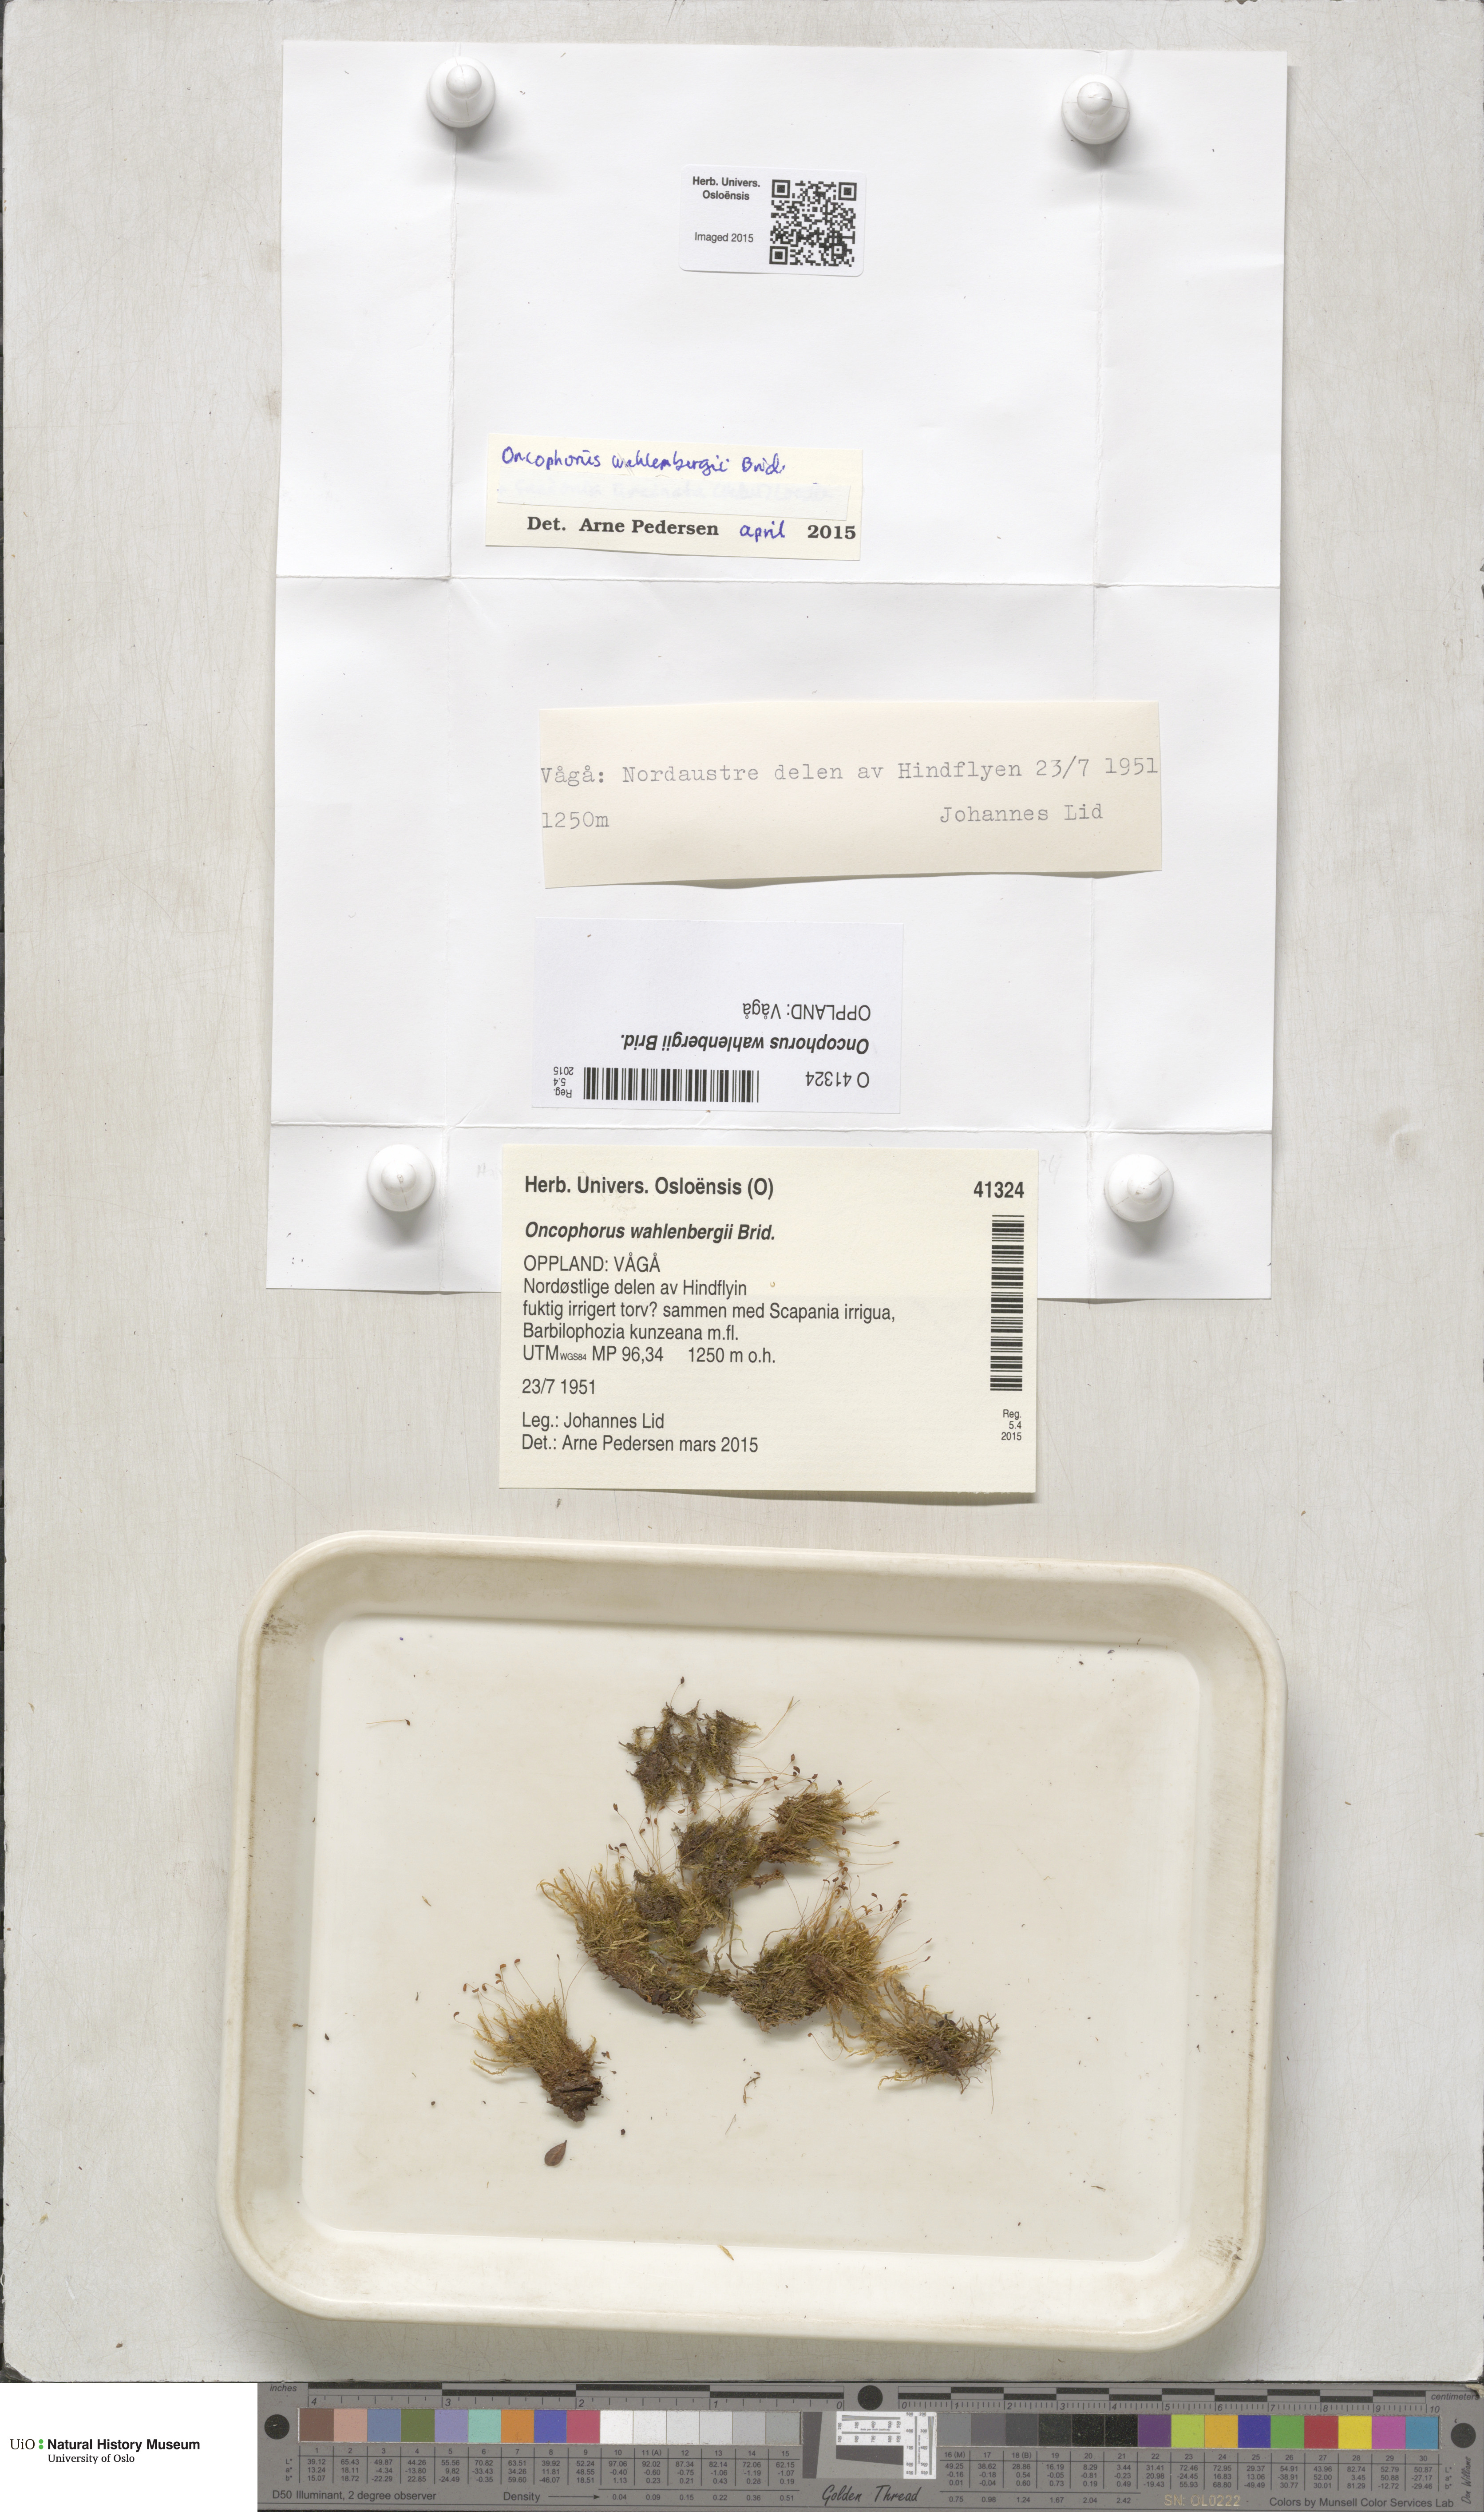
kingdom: Plantae
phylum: Bryophyta
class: Bryopsida
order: Dicranales
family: Rhabdoweisiaceae
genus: Brideliella
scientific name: Brideliella wahlenbergii
